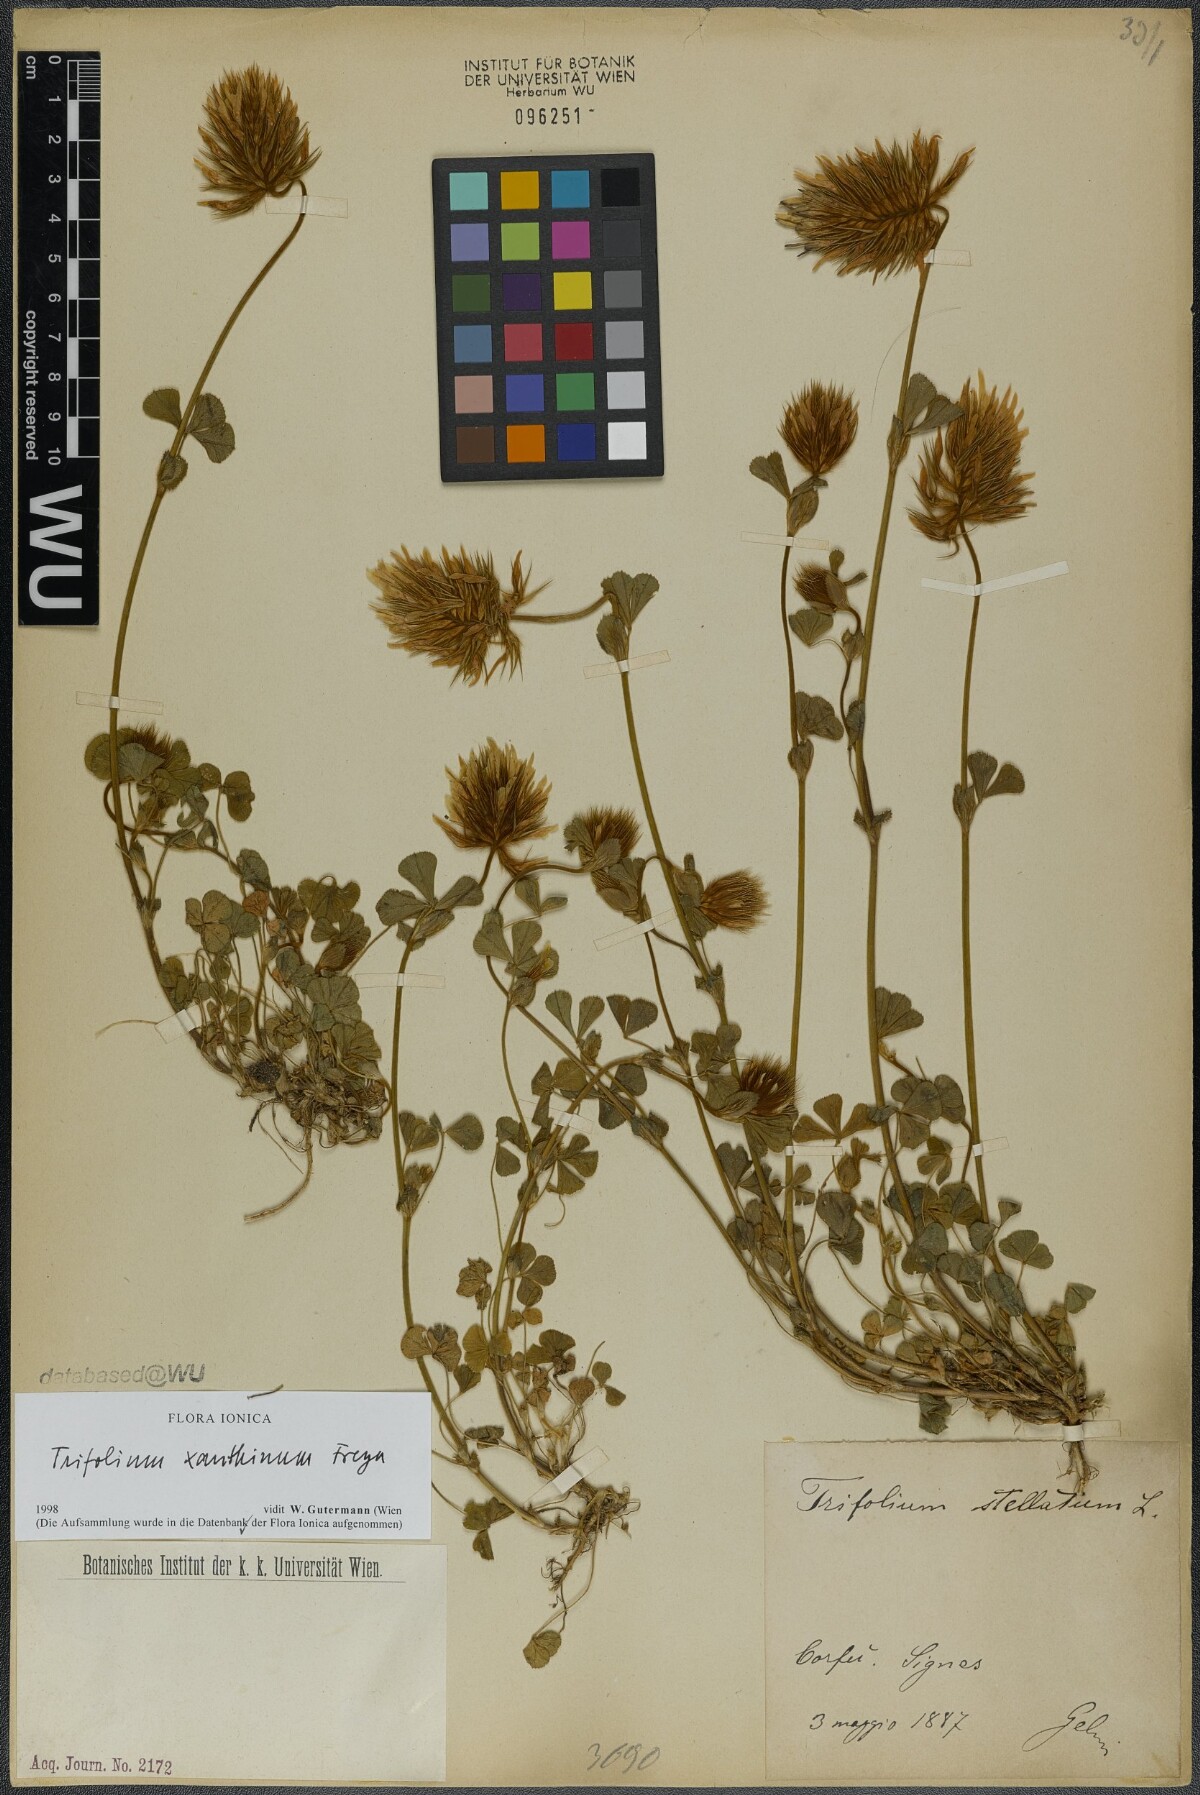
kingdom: Plantae
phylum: Tracheophyta
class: Magnoliopsida
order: Fabales
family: Fabaceae
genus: Trifolium
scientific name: Trifolium xanthinum
